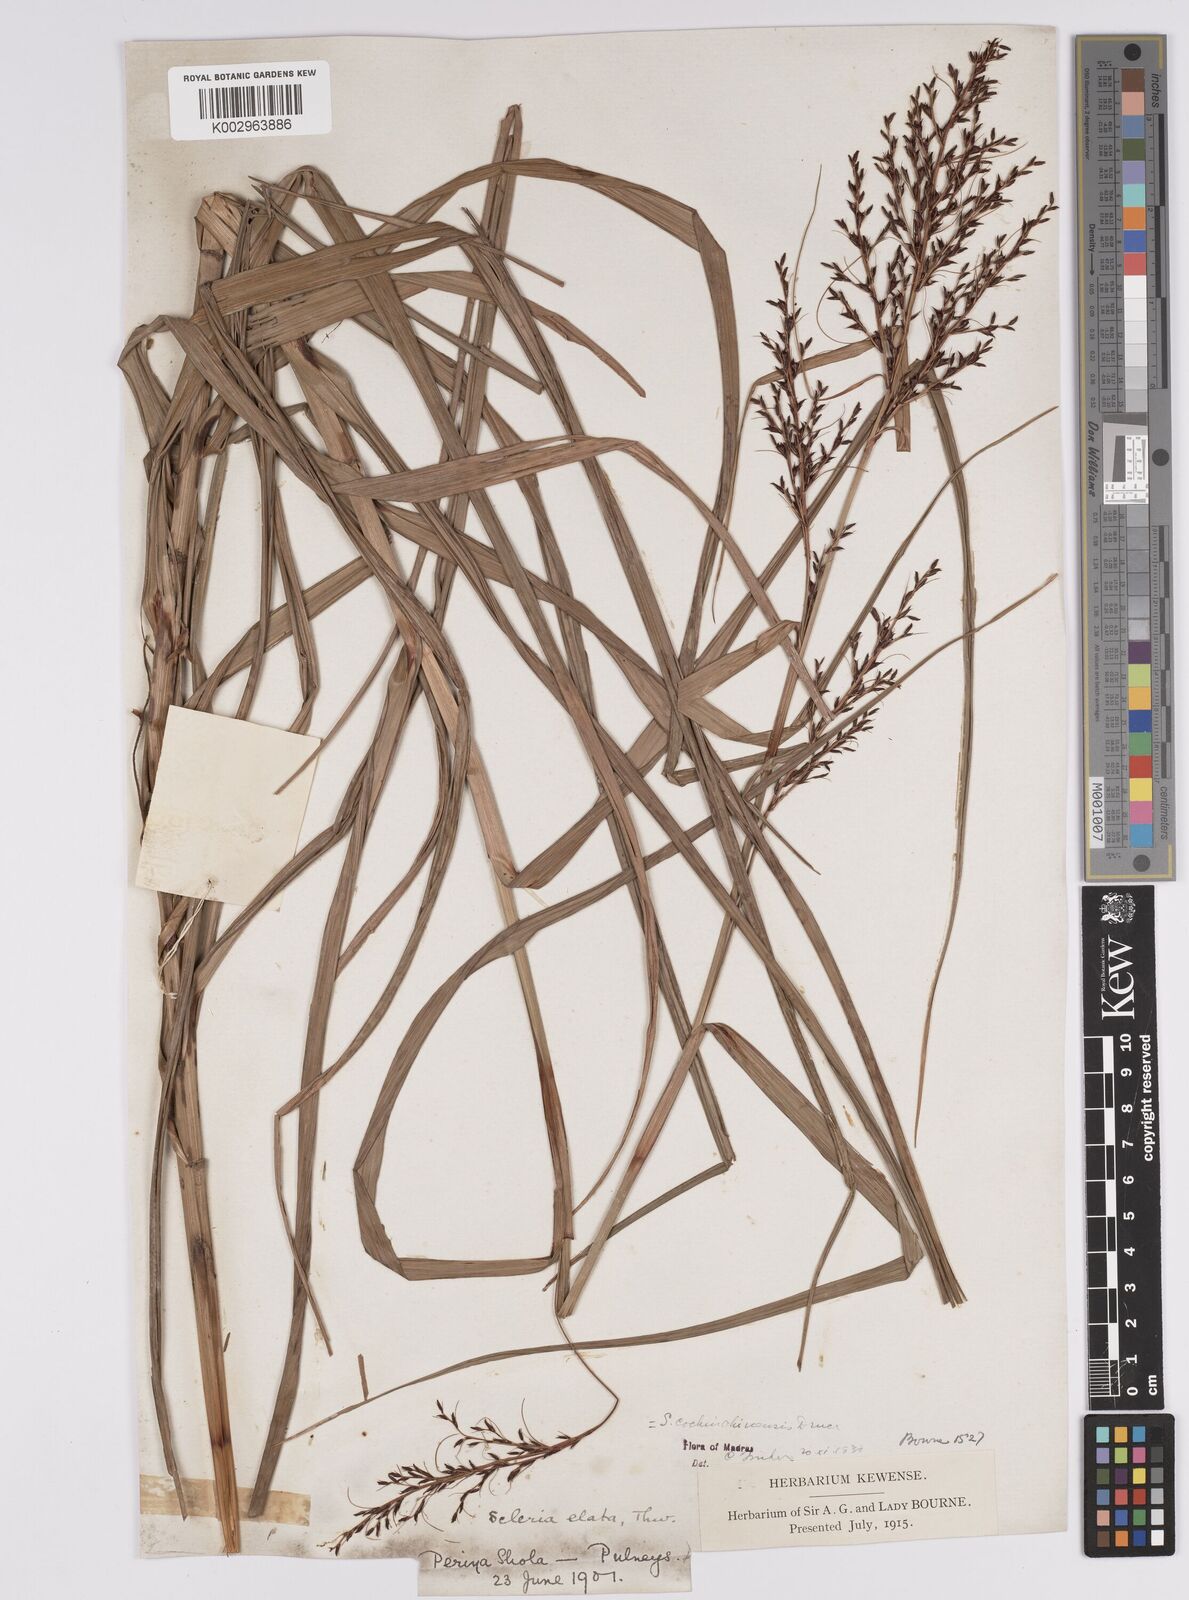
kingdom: Plantae
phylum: Tracheophyta
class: Liliopsida
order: Poales
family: Cyperaceae
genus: Scleria
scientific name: Scleria terrestris
